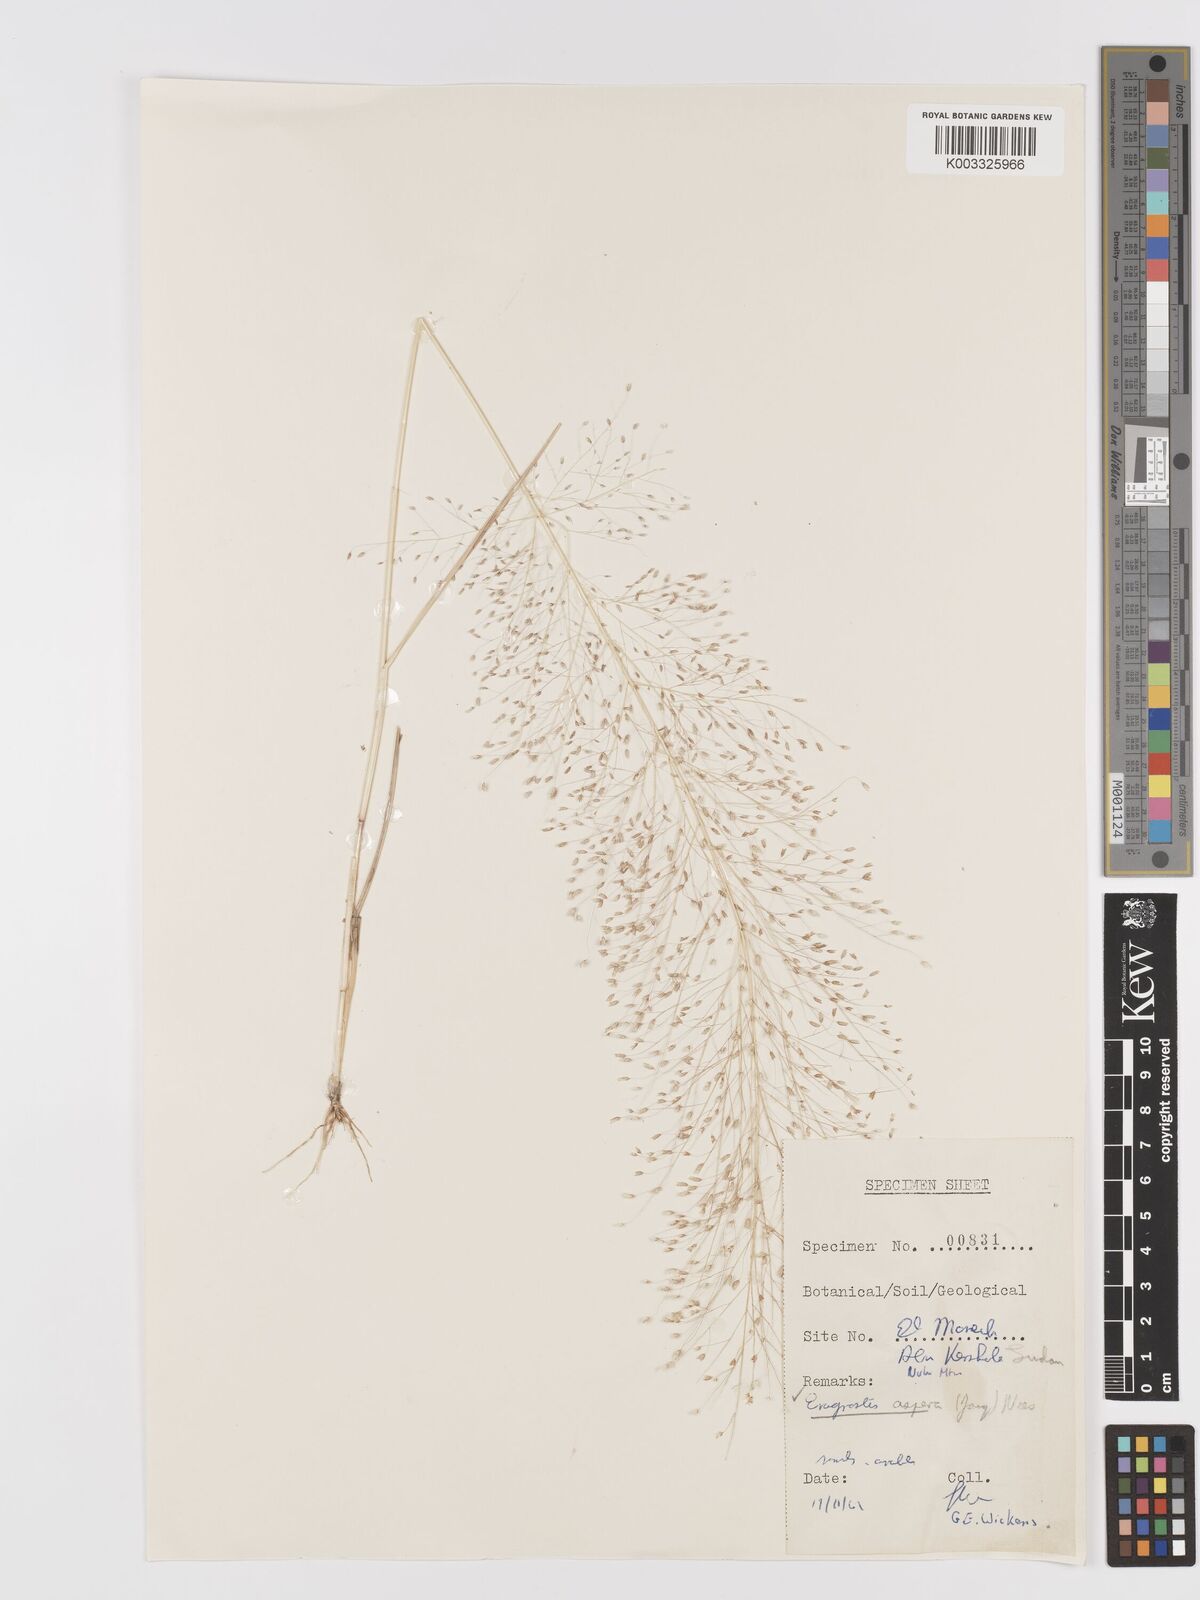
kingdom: Plantae
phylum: Tracheophyta
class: Liliopsida
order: Poales
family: Poaceae
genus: Eragrostis
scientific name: Eragrostis aspera
